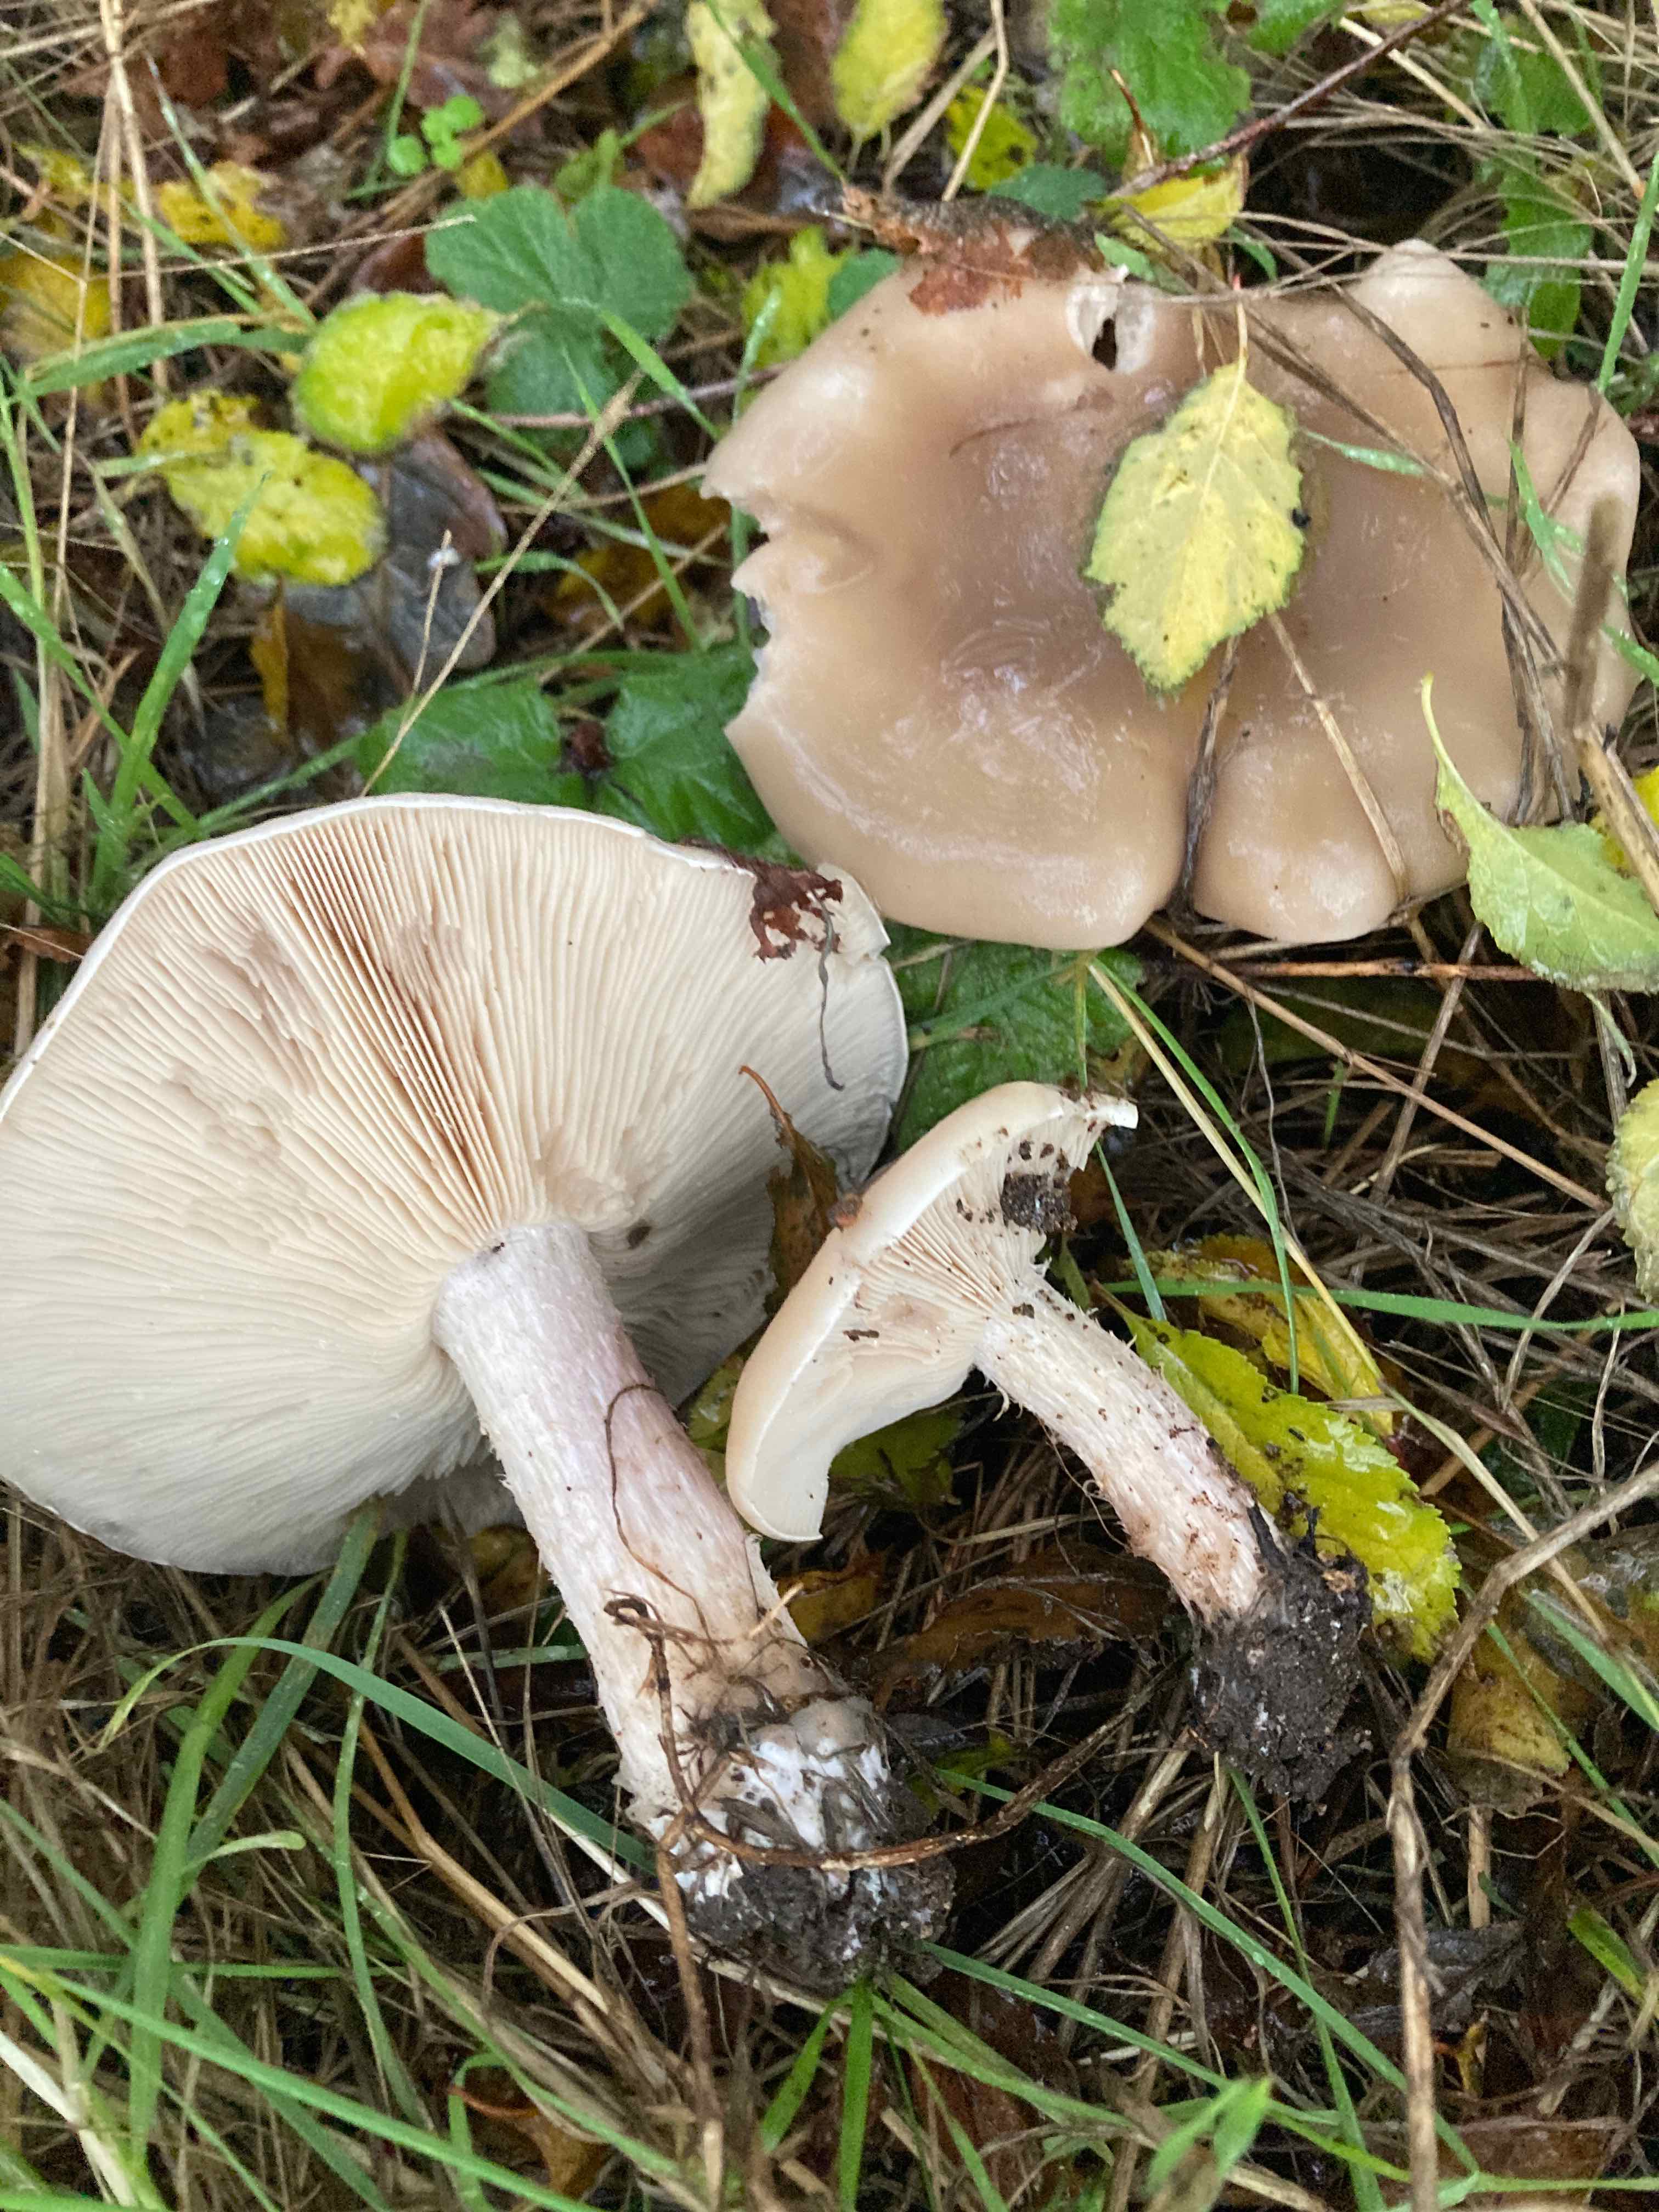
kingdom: Fungi
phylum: Basidiomycota
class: Agaricomycetes
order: Agaricales
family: Tricholomataceae
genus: Lepista
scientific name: Lepista personata
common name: bleg hekseringshat
